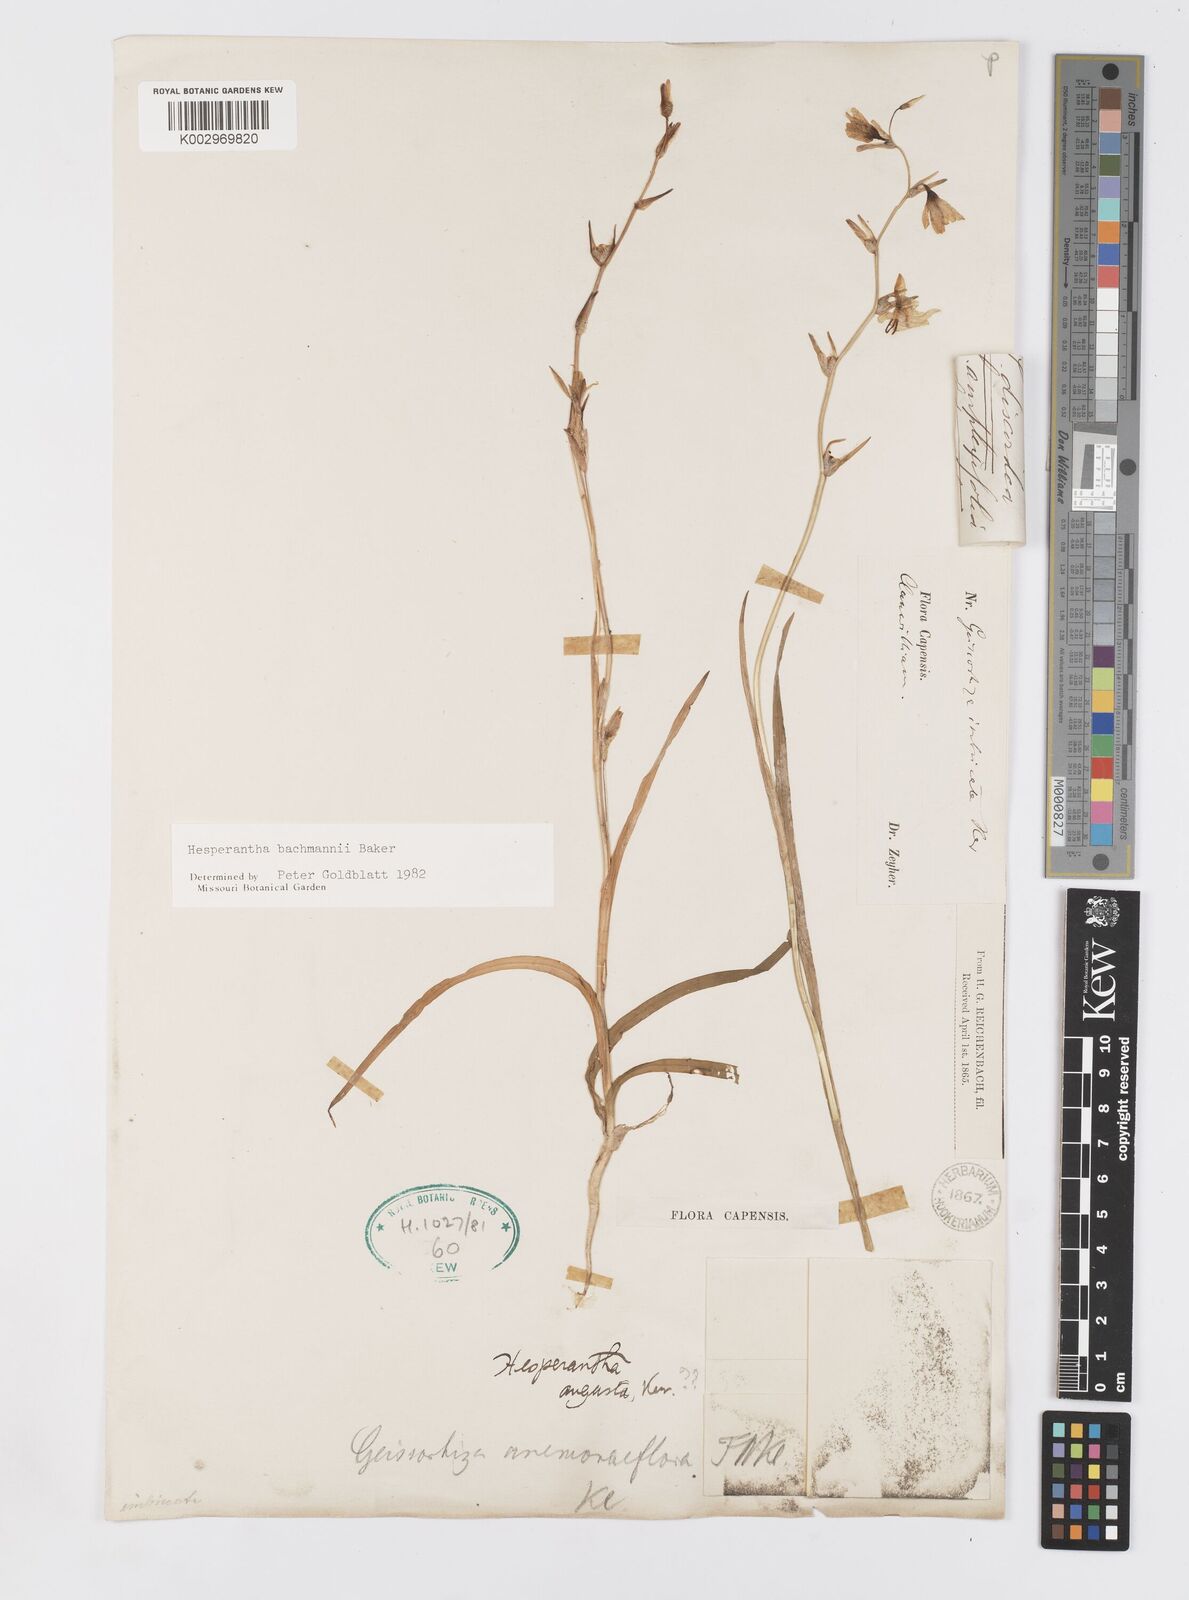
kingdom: Plantae
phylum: Tracheophyta
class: Liliopsida
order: Asparagales
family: Iridaceae
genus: Hesperantha
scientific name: Hesperantha bachmannii
